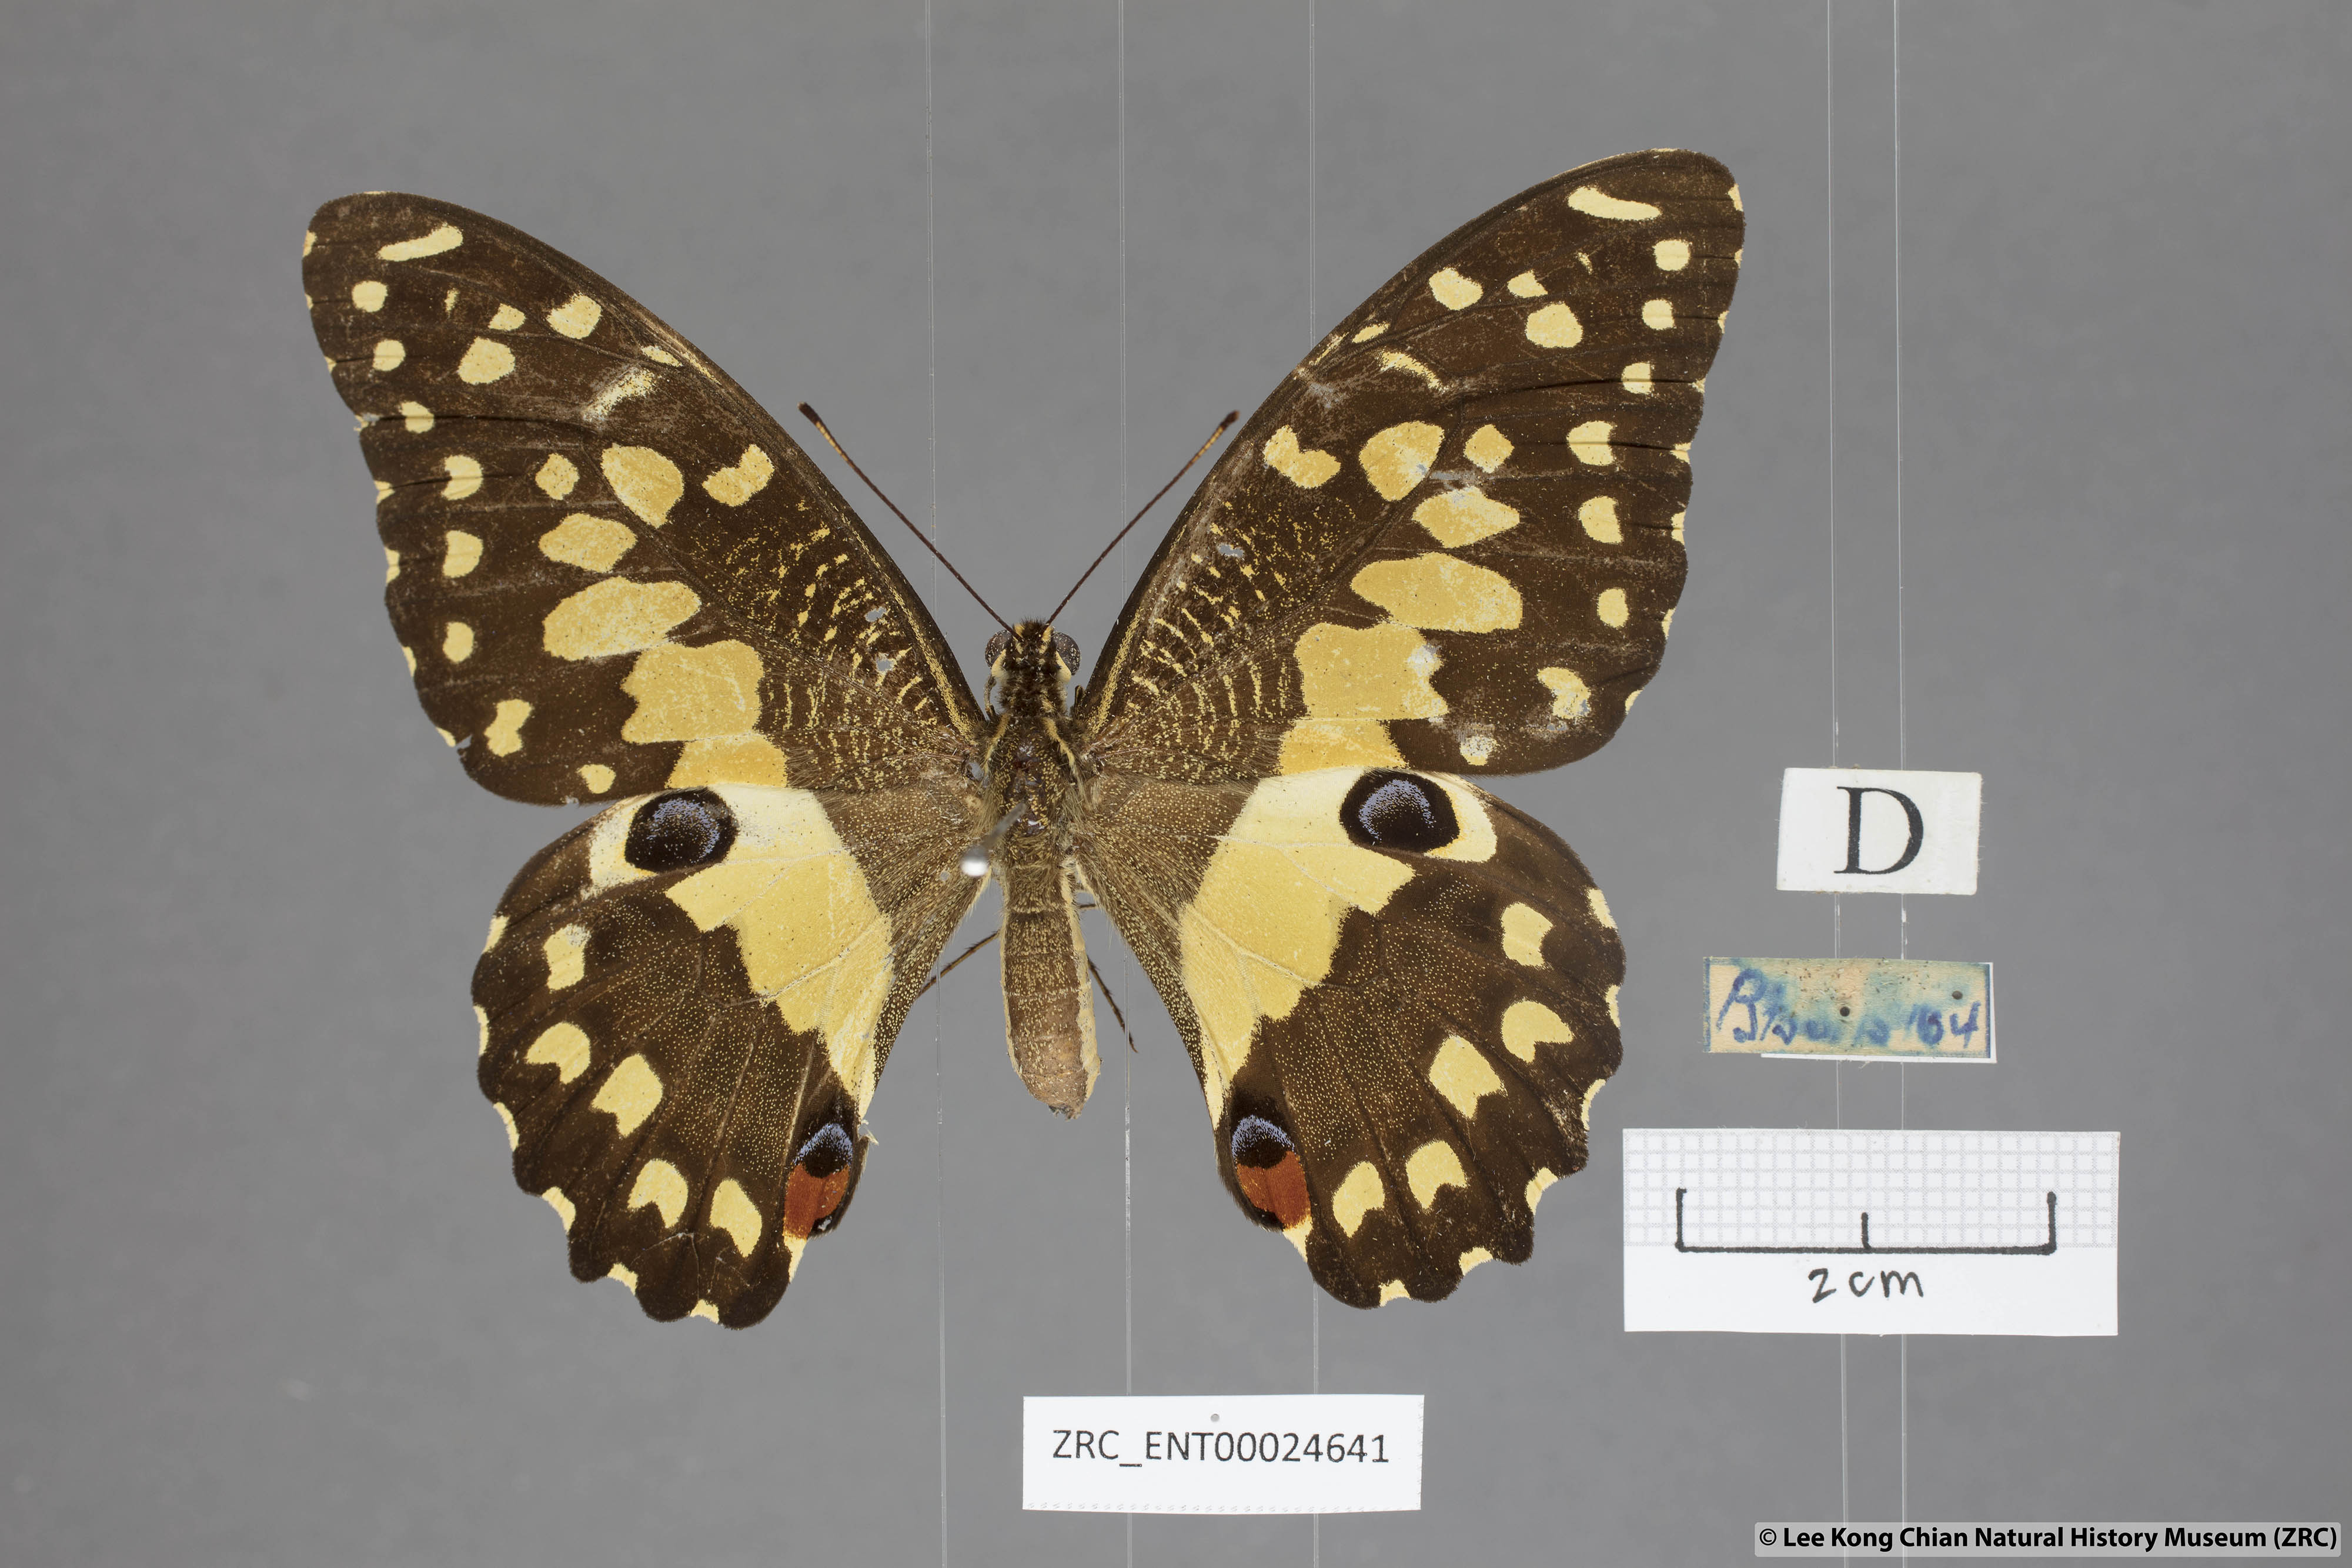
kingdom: Animalia
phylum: Arthropoda
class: Insecta
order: Lepidoptera
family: Papilionidae
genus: Papilio
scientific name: Papilio demoleus
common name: Lime butterfly
